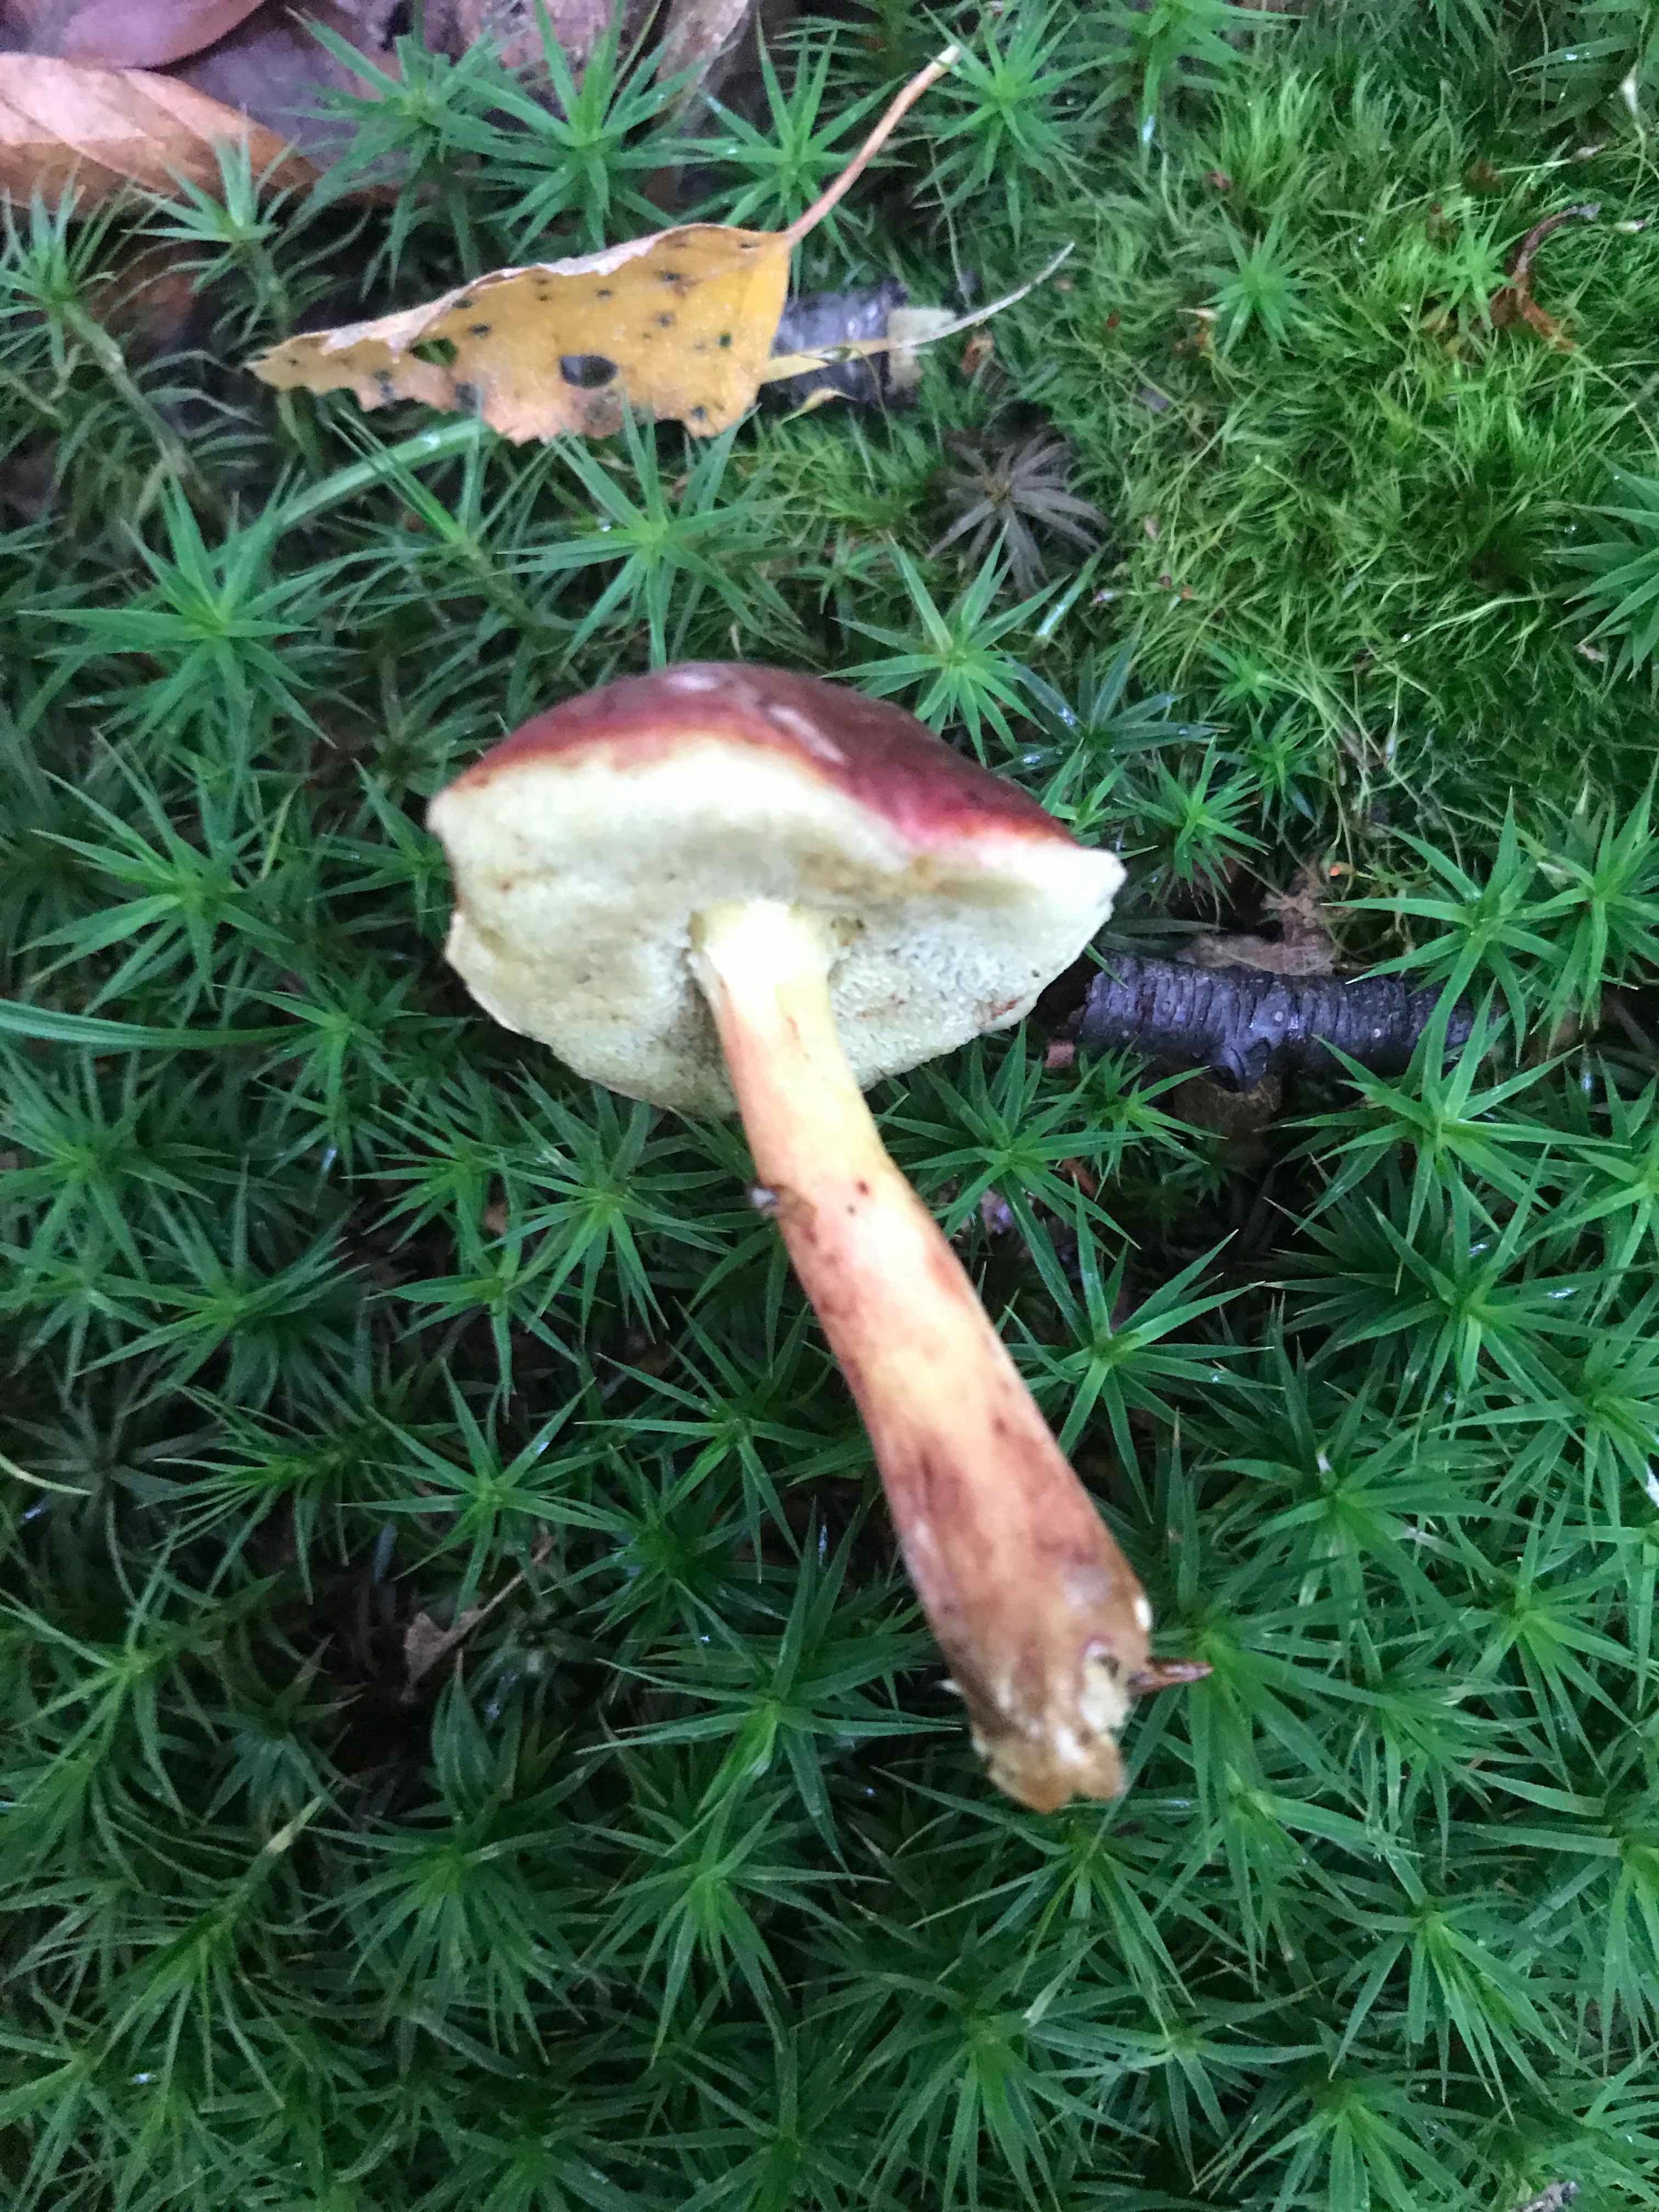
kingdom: Fungi
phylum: Basidiomycota
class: Agaricomycetes
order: Boletales
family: Boletaceae
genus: Xerocomellus
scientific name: Xerocomellus
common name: dværgrørhat
